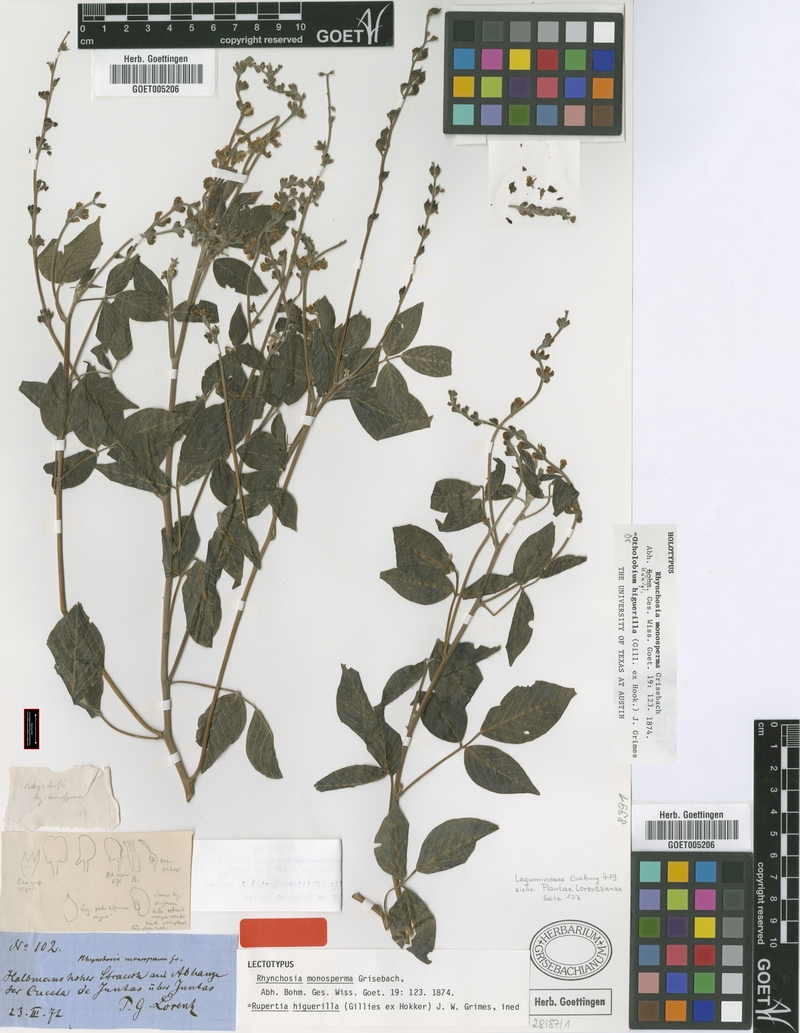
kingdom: Plantae
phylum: Tracheophyta
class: Magnoliopsida
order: Fabales
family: Fabaceae
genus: Archidendron
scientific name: Archidendron
